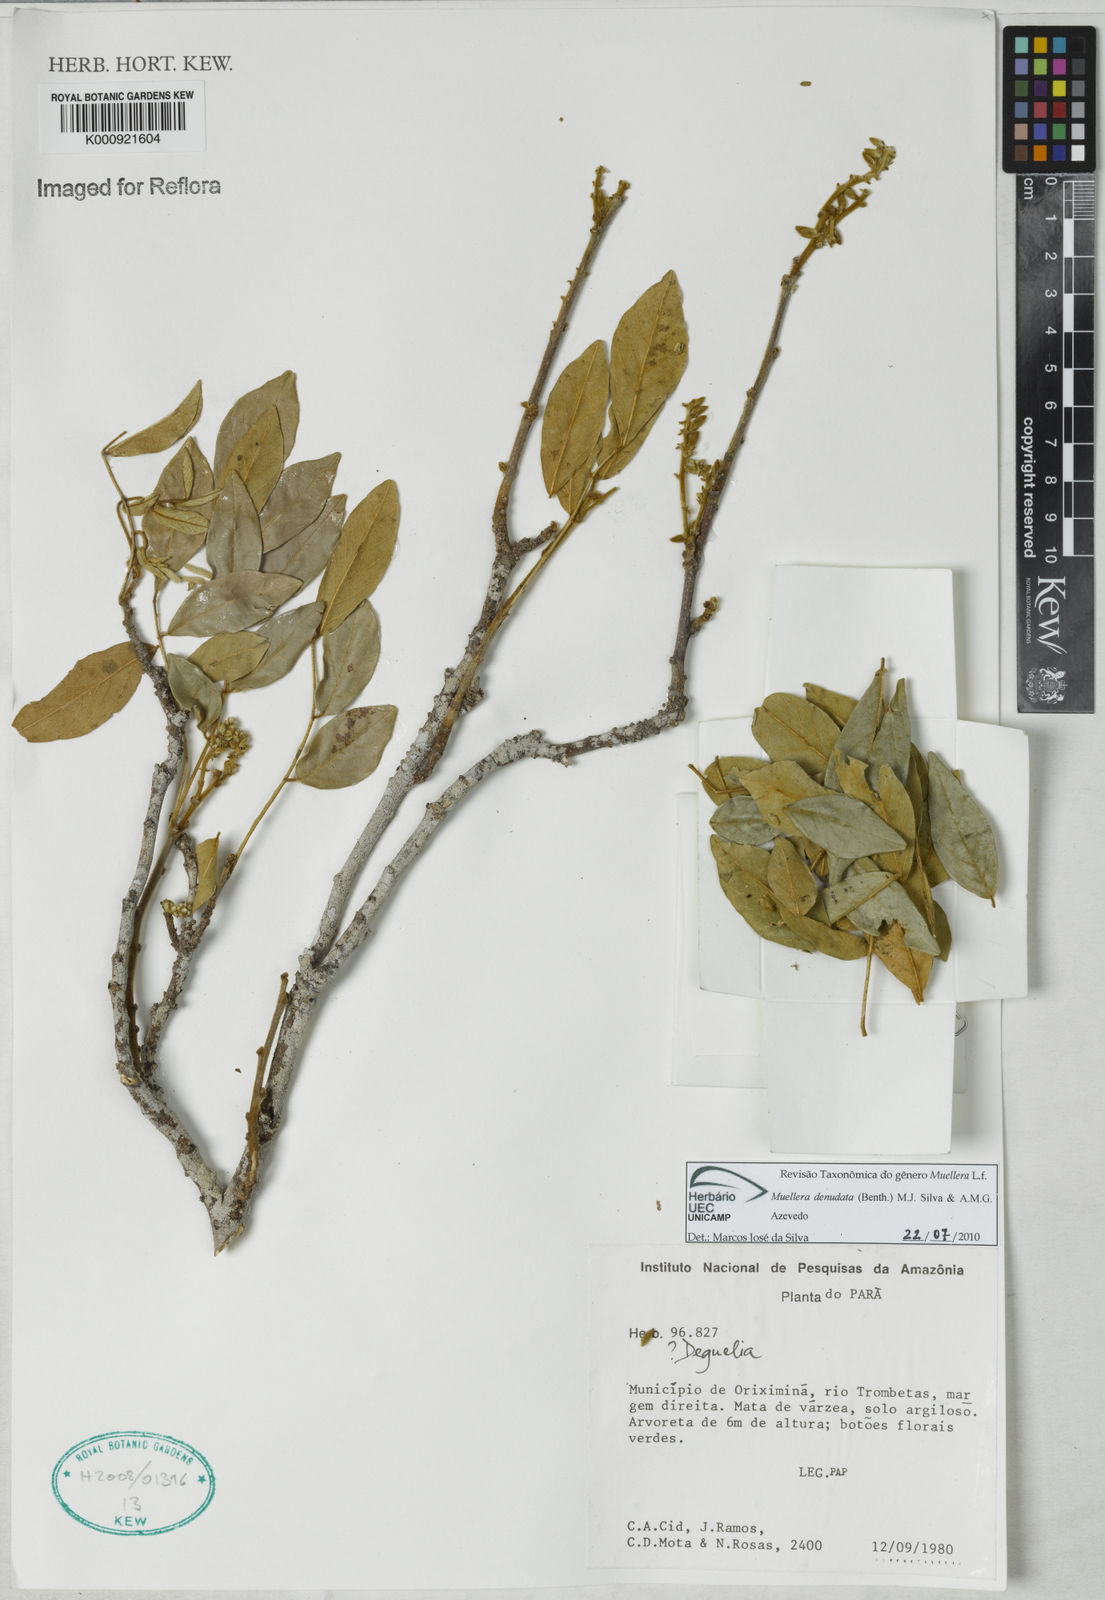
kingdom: Plantae
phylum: Tracheophyta
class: Magnoliopsida
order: Fabales
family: Fabaceae
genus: Muellera
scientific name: Muellera
